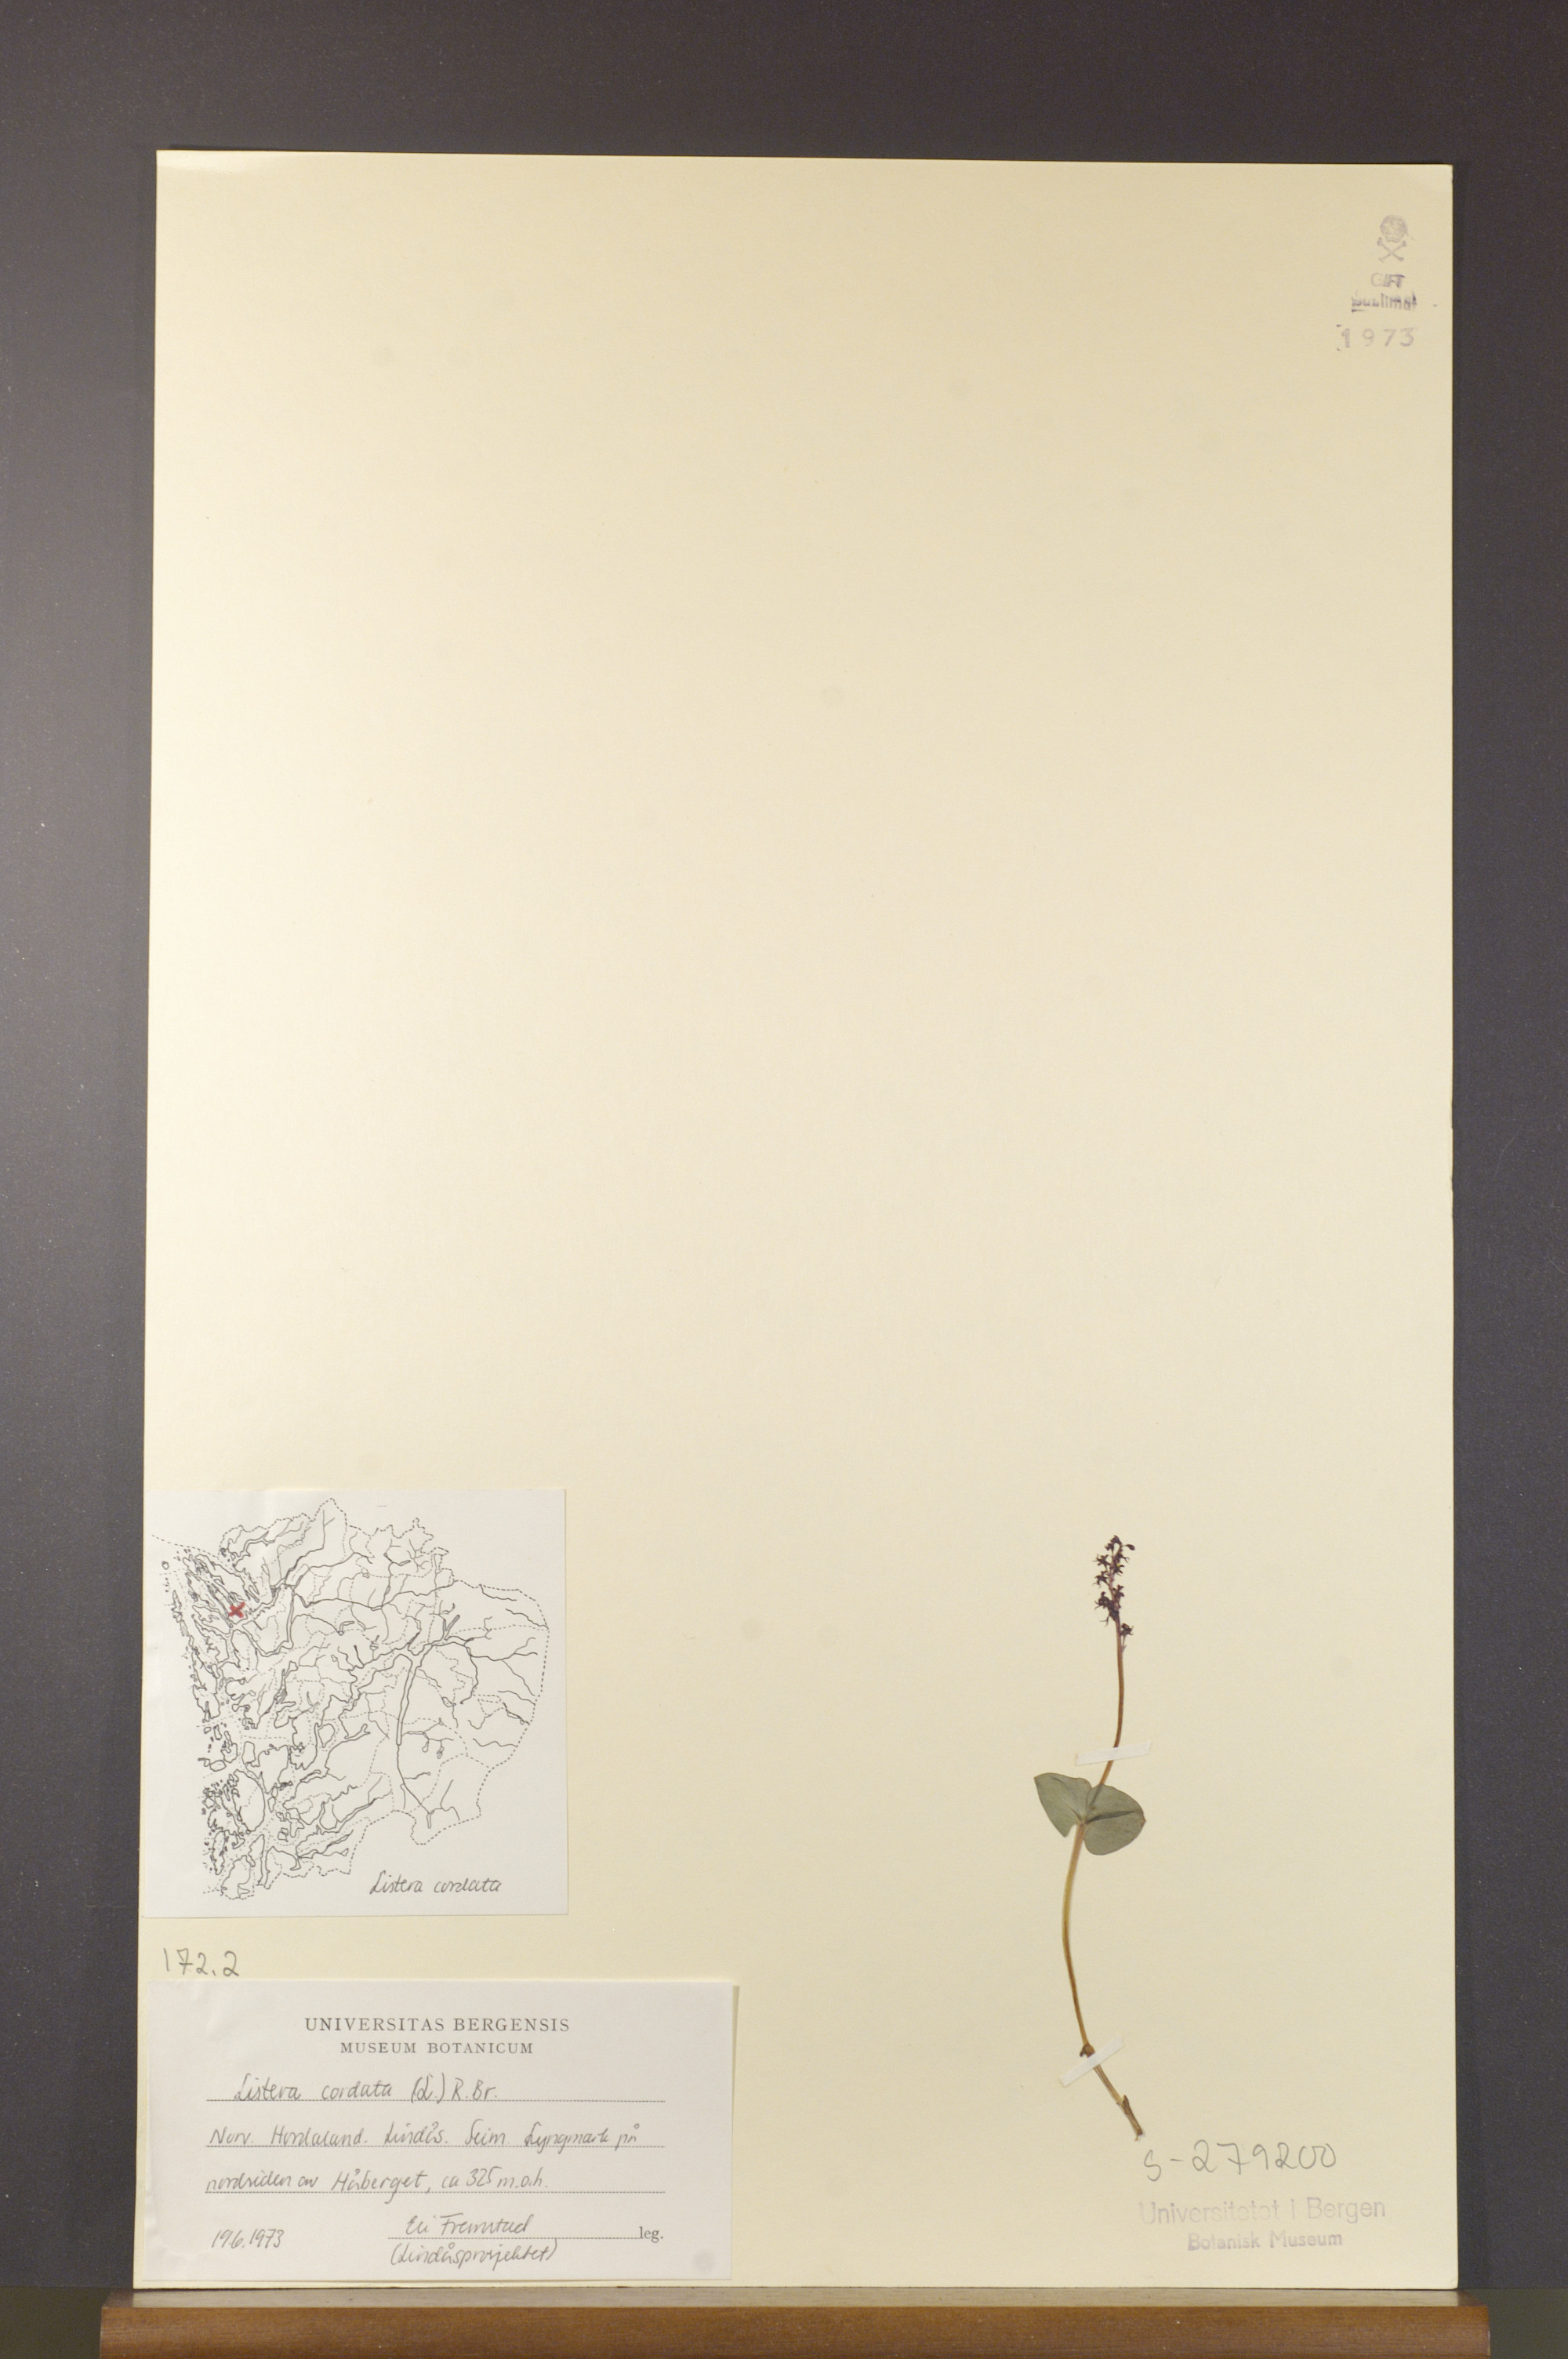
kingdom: Plantae
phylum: Tracheophyta
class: Liliopsida
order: Asparagales
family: Orchidaceae
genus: Neottia
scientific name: Neottia cordata
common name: Lesser twayblade
